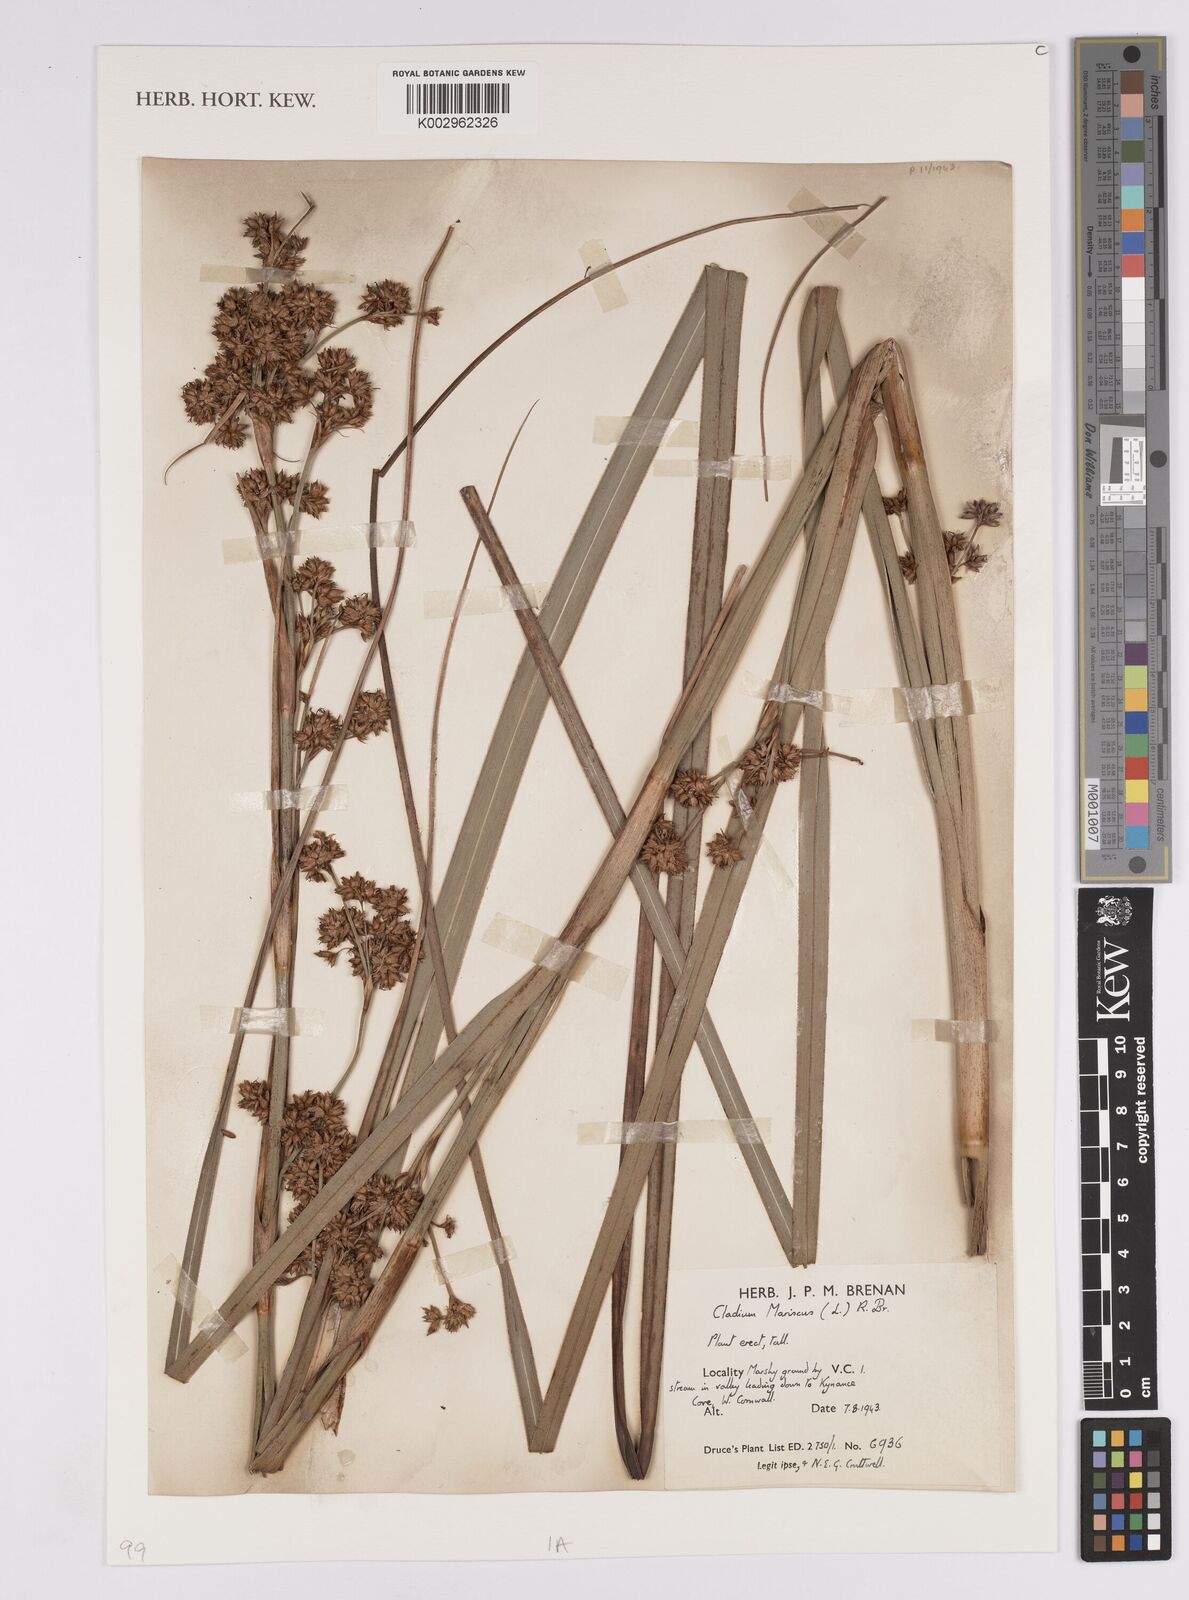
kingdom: Plantae
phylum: Tracheophyta
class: Liliopsida
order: Poales
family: Cyperaceae
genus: Cladium
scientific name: Cladium mariscus
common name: Great fen-sedge
